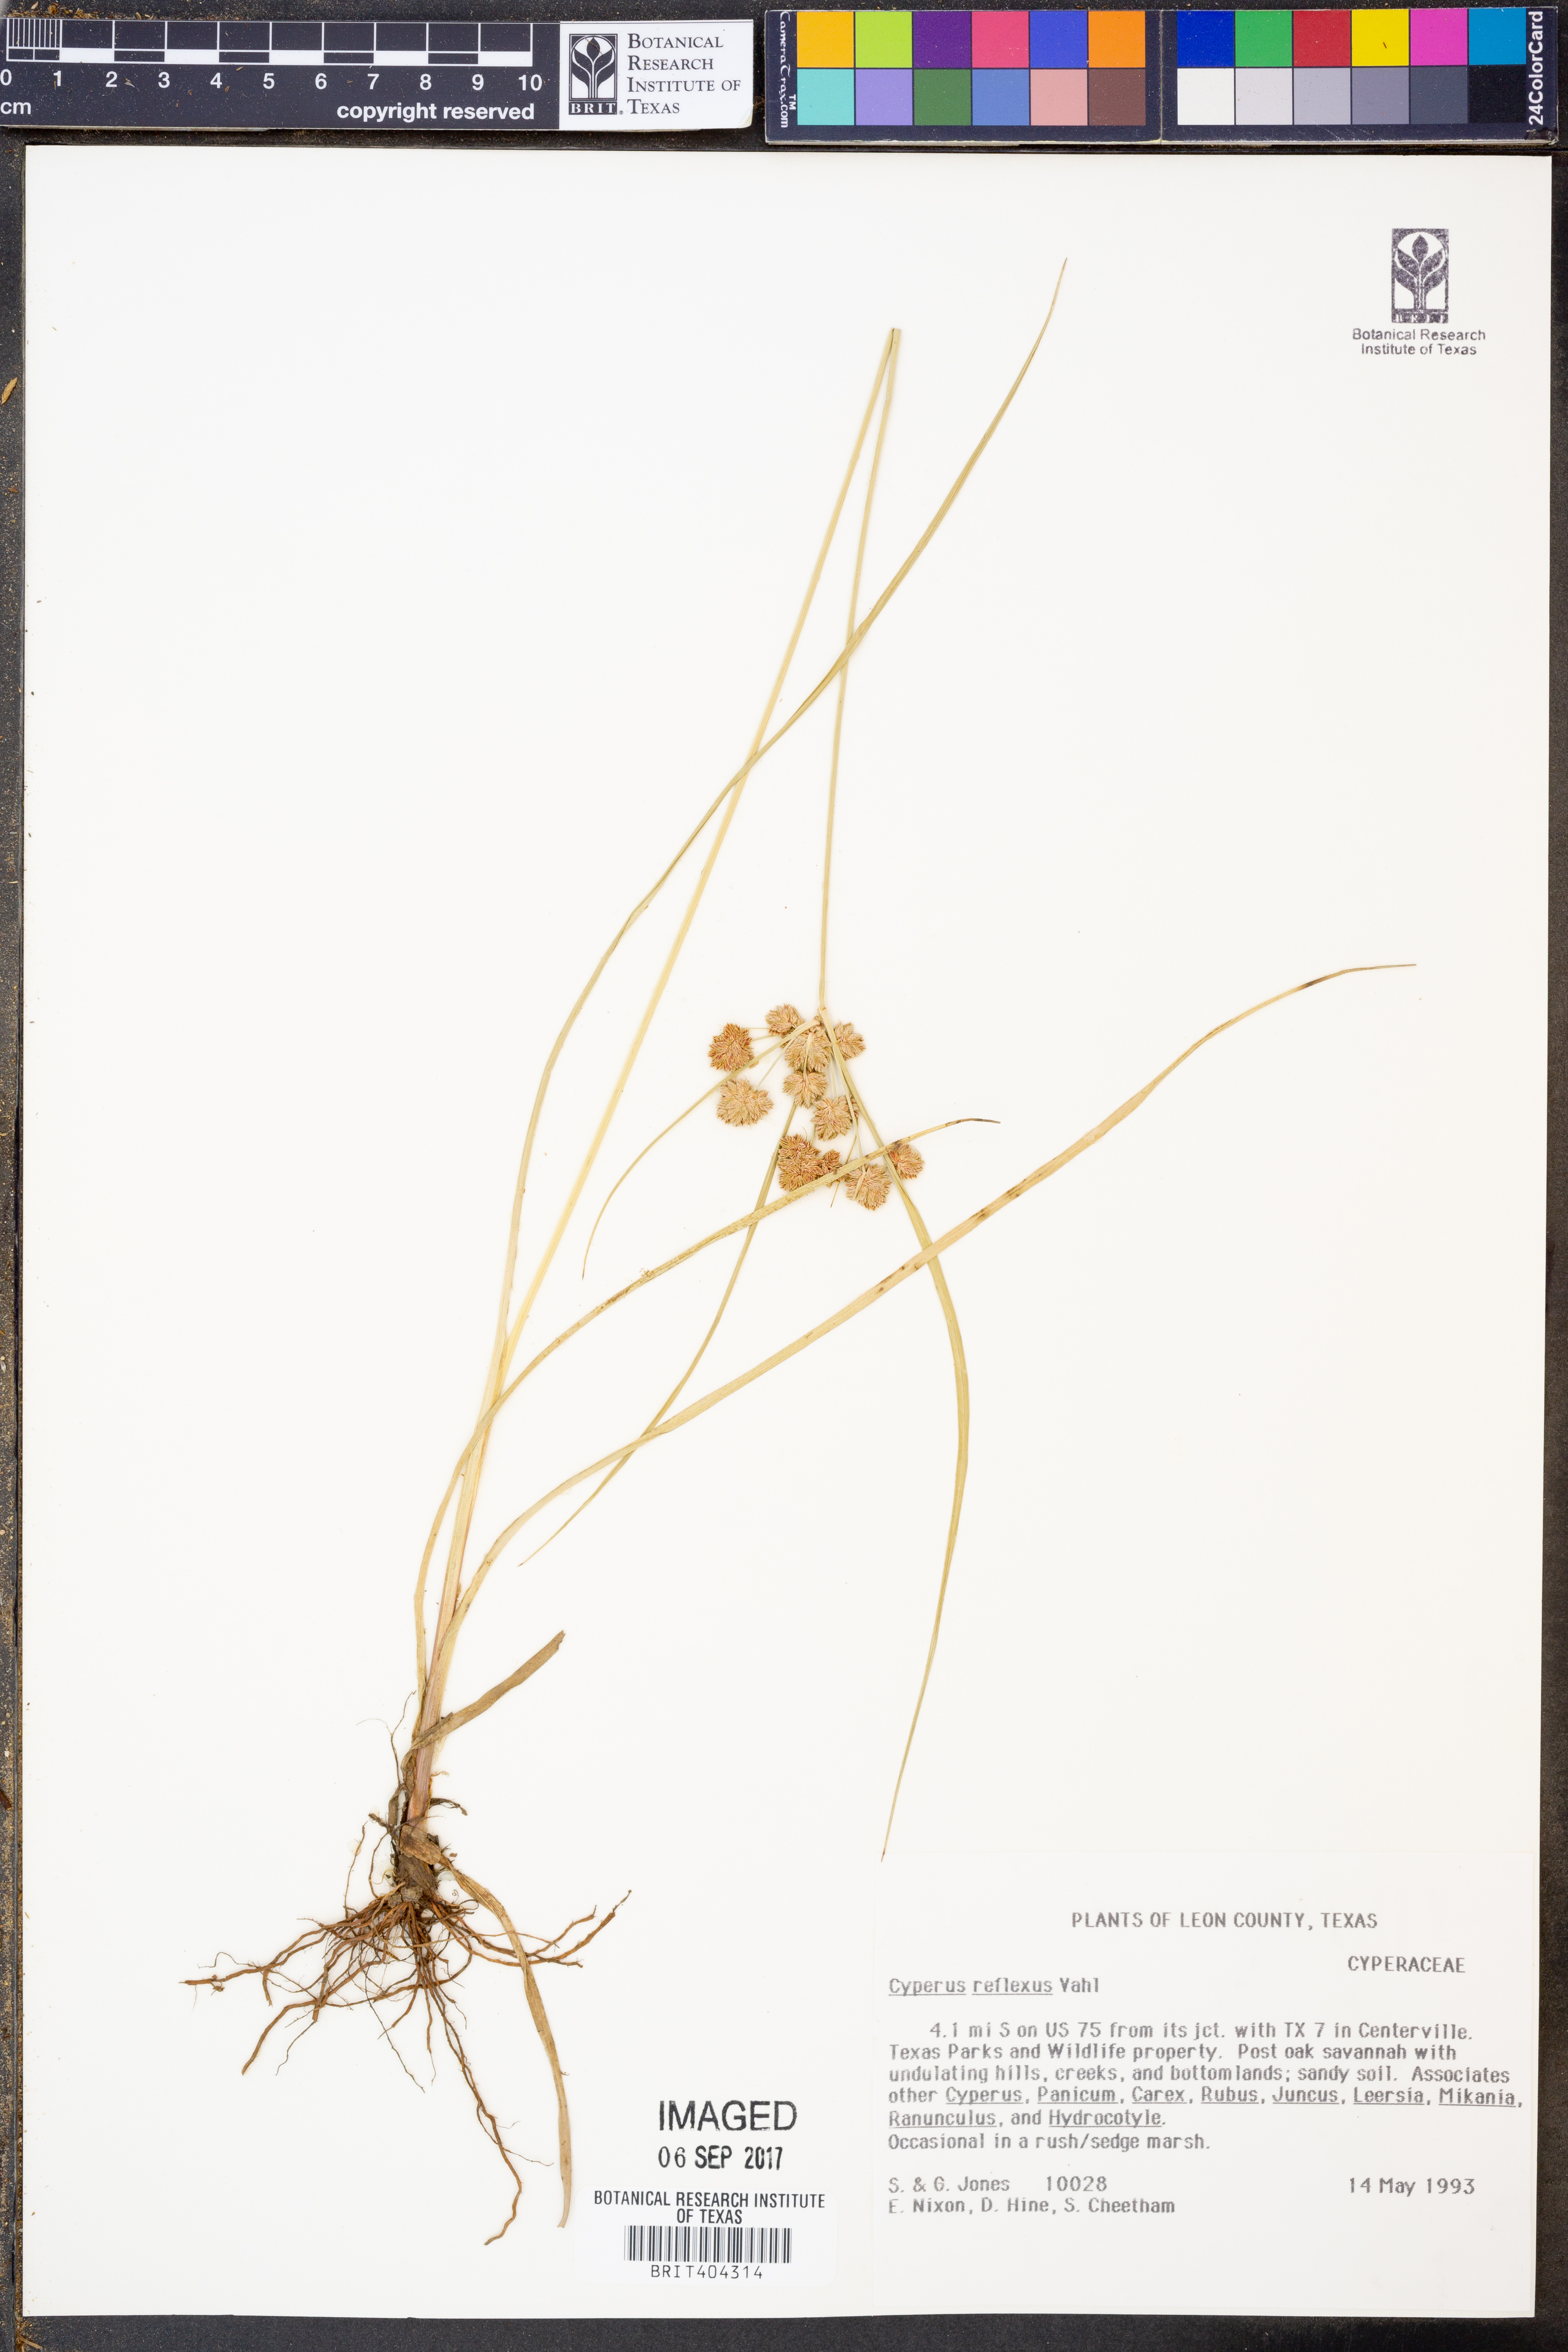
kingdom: Plantae
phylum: Tracheophyta
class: Liliopsida
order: Poales
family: Cyperaceae
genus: Cyperus
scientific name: Cyperus reflexus
